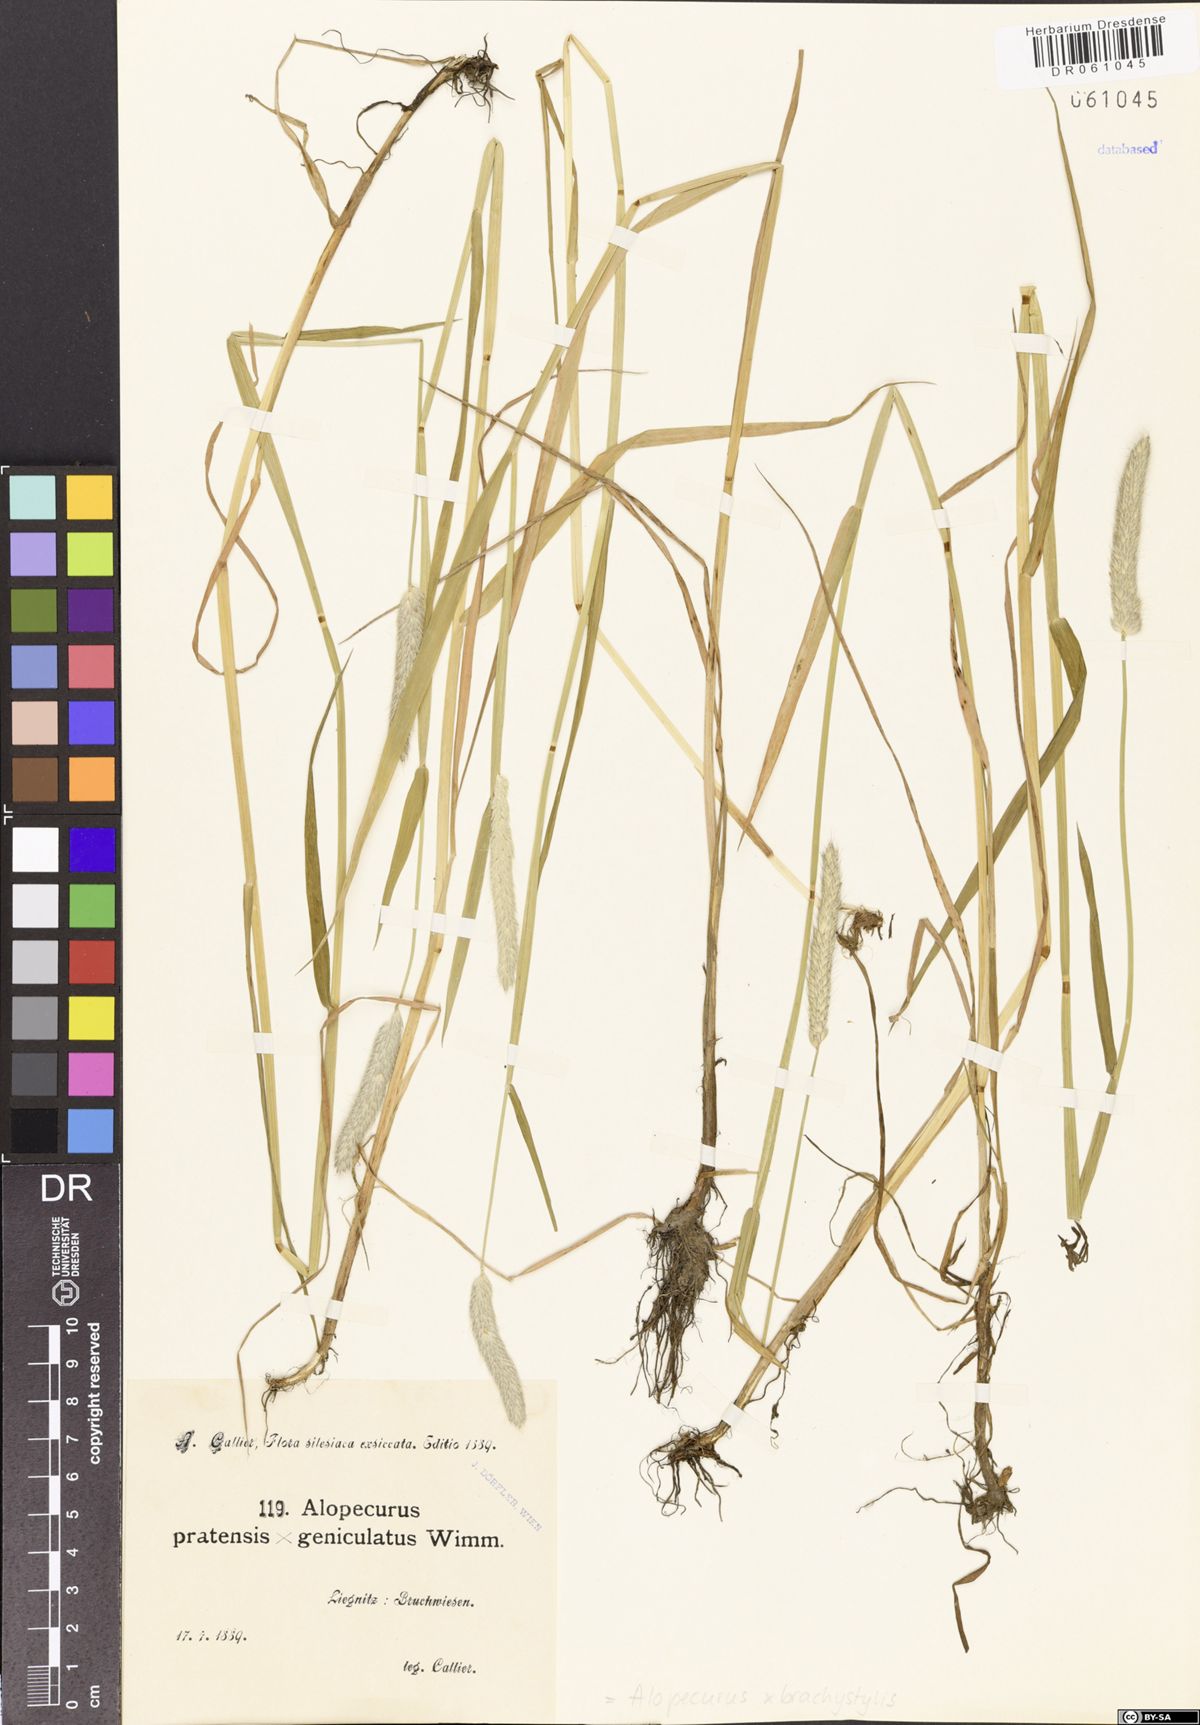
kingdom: Plantae
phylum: Tracheophyta
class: Liliopsida
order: Poales
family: Poaceae
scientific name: Poaceae
